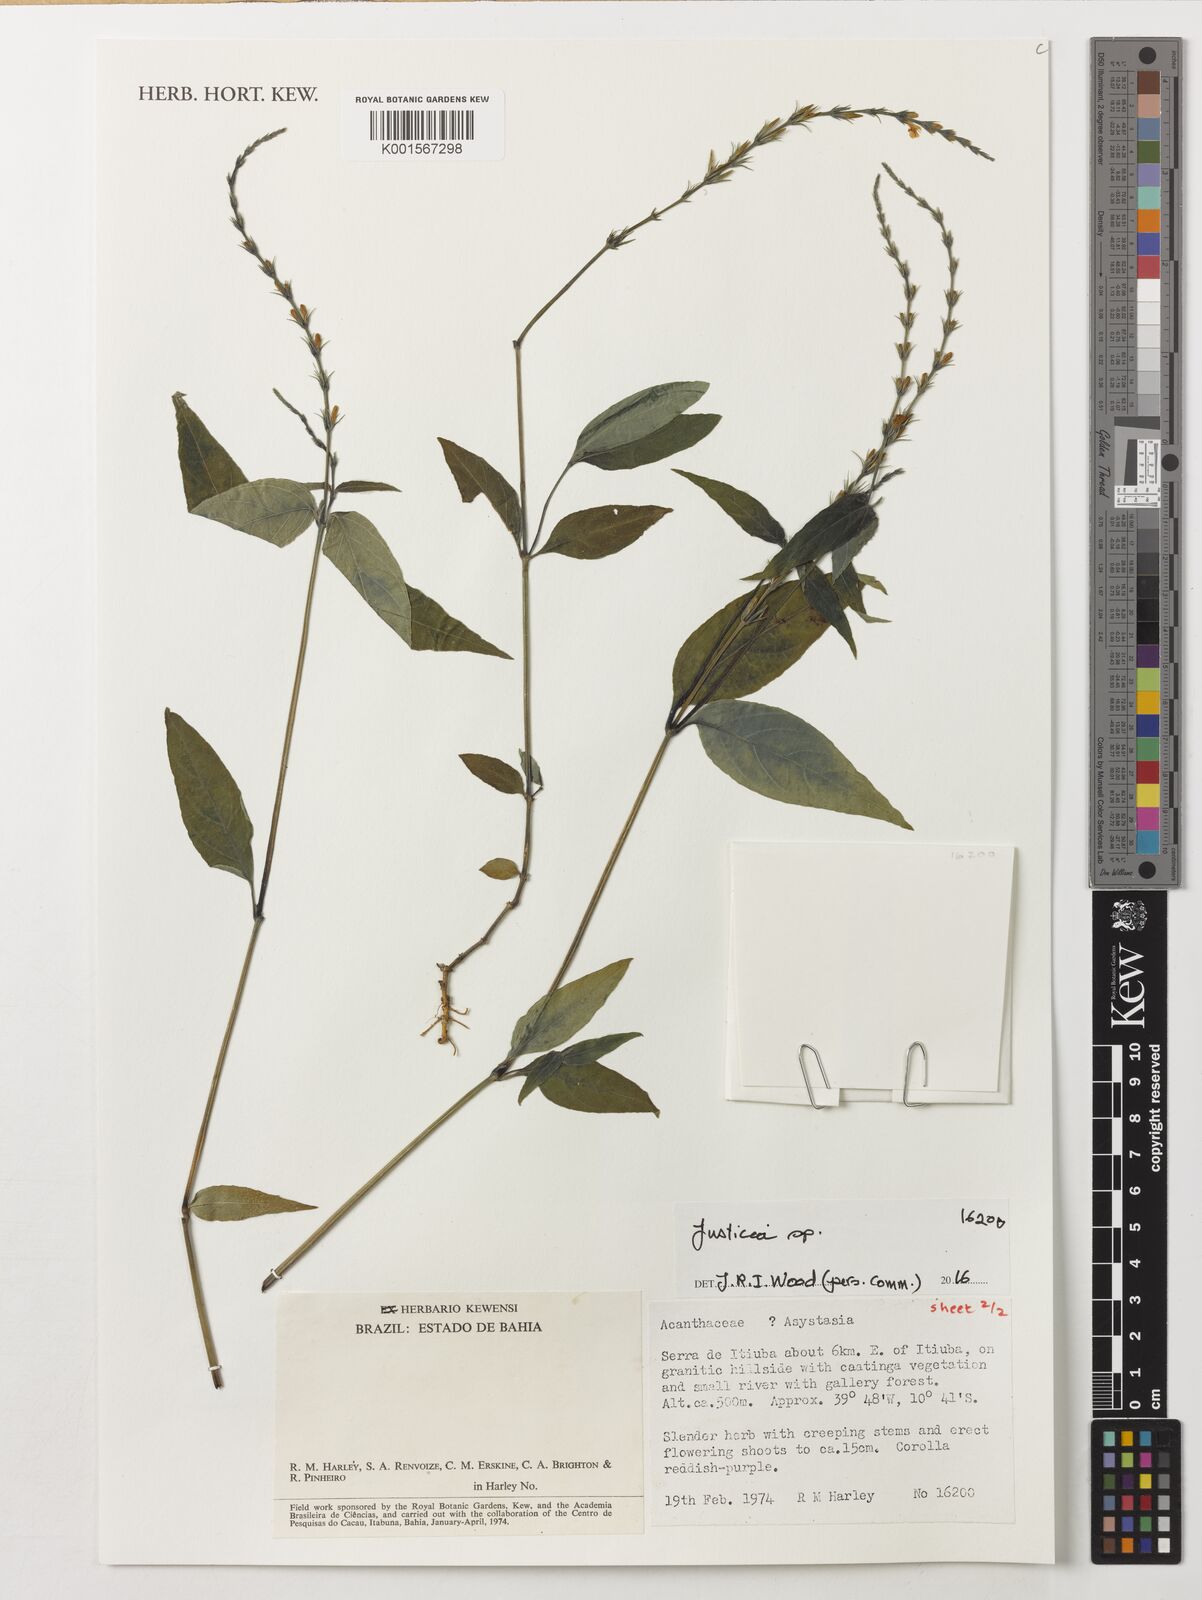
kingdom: Plantae
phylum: Tracheophyta
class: Magnoliopsida
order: Lamiales
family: Acanthaceae
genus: Justicia
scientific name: Justicia
